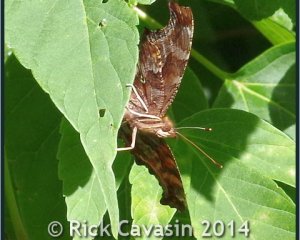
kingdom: Animalia
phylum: Arthropoda
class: Insecta
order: Lepidoptera
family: Nymphalidae
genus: Polygonia
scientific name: Polygonia comma
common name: Eastern Comma
